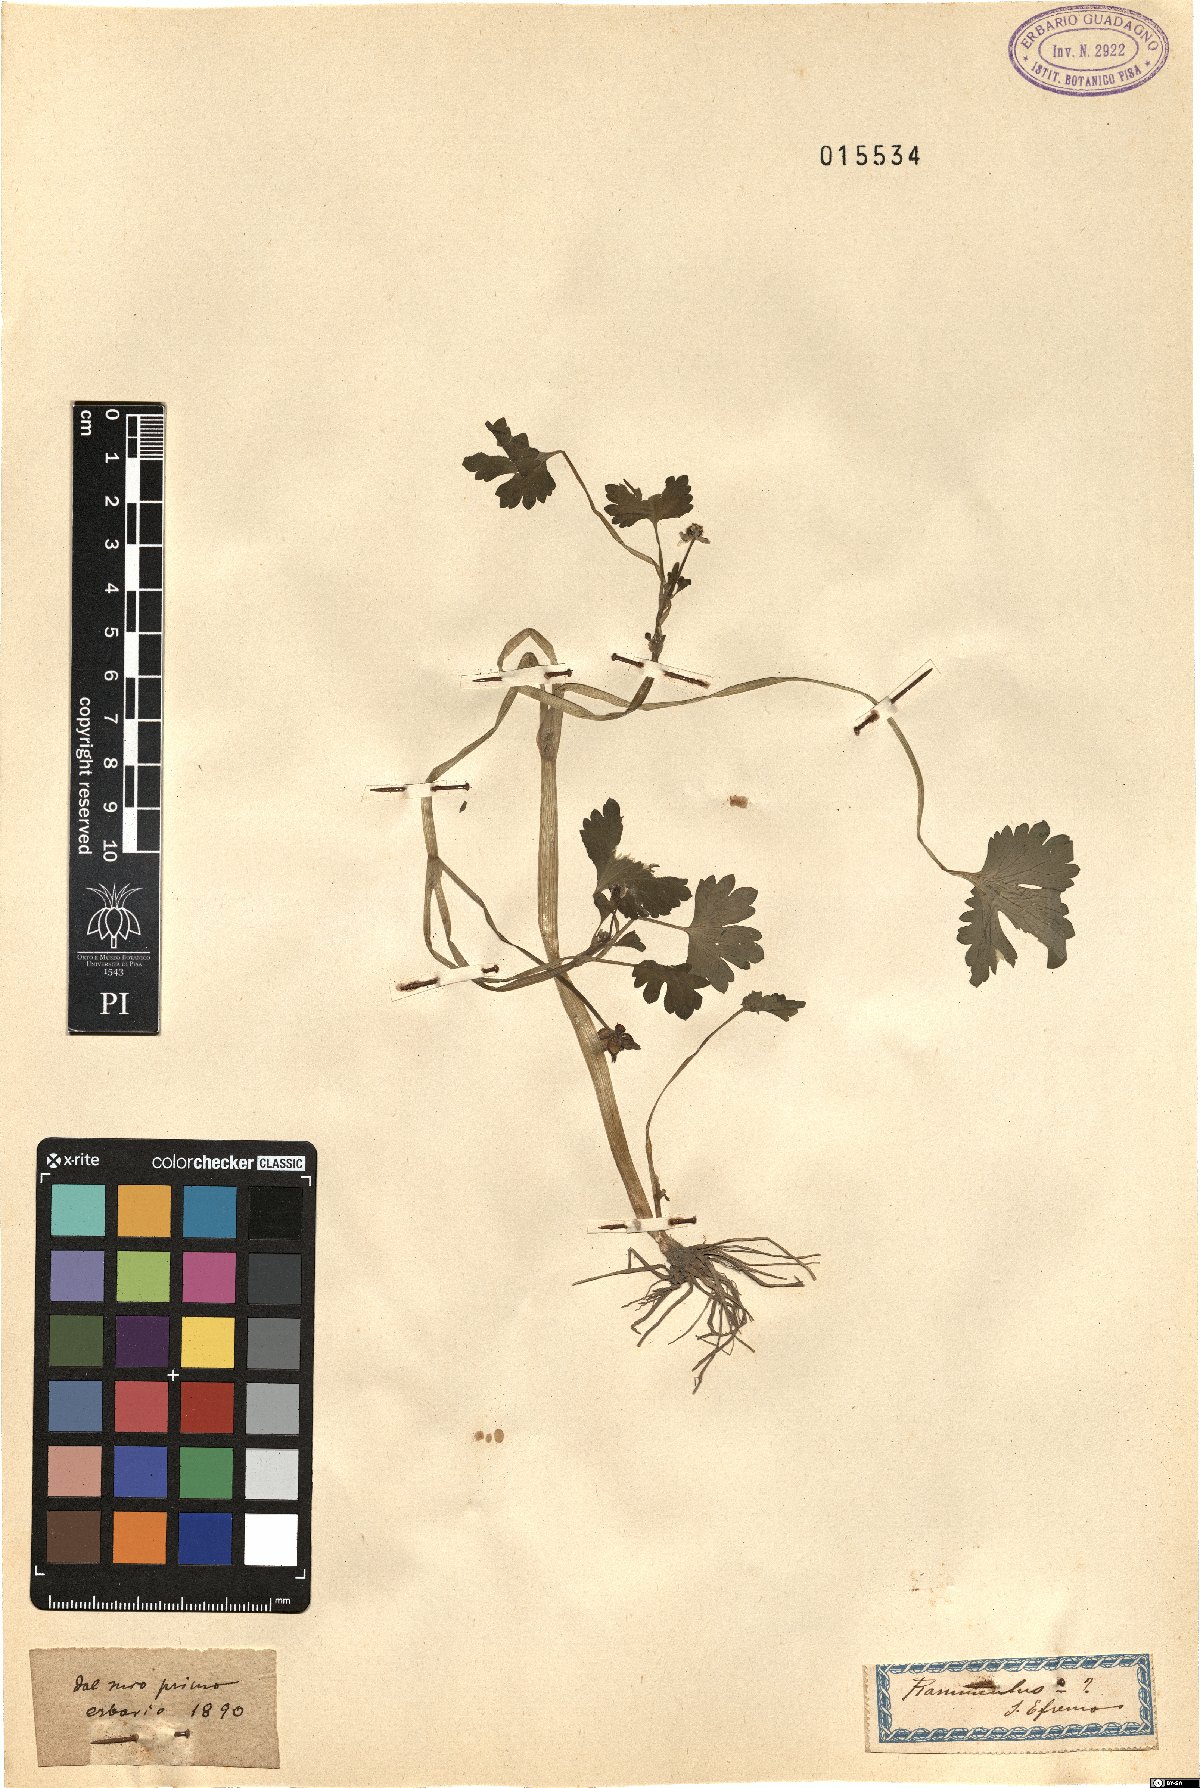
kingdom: Plantae
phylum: Tracheophyta
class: Magnoliopsida
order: Ranunculales
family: Ranunculaceae
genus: Ranunculus
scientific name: Ranunculus
